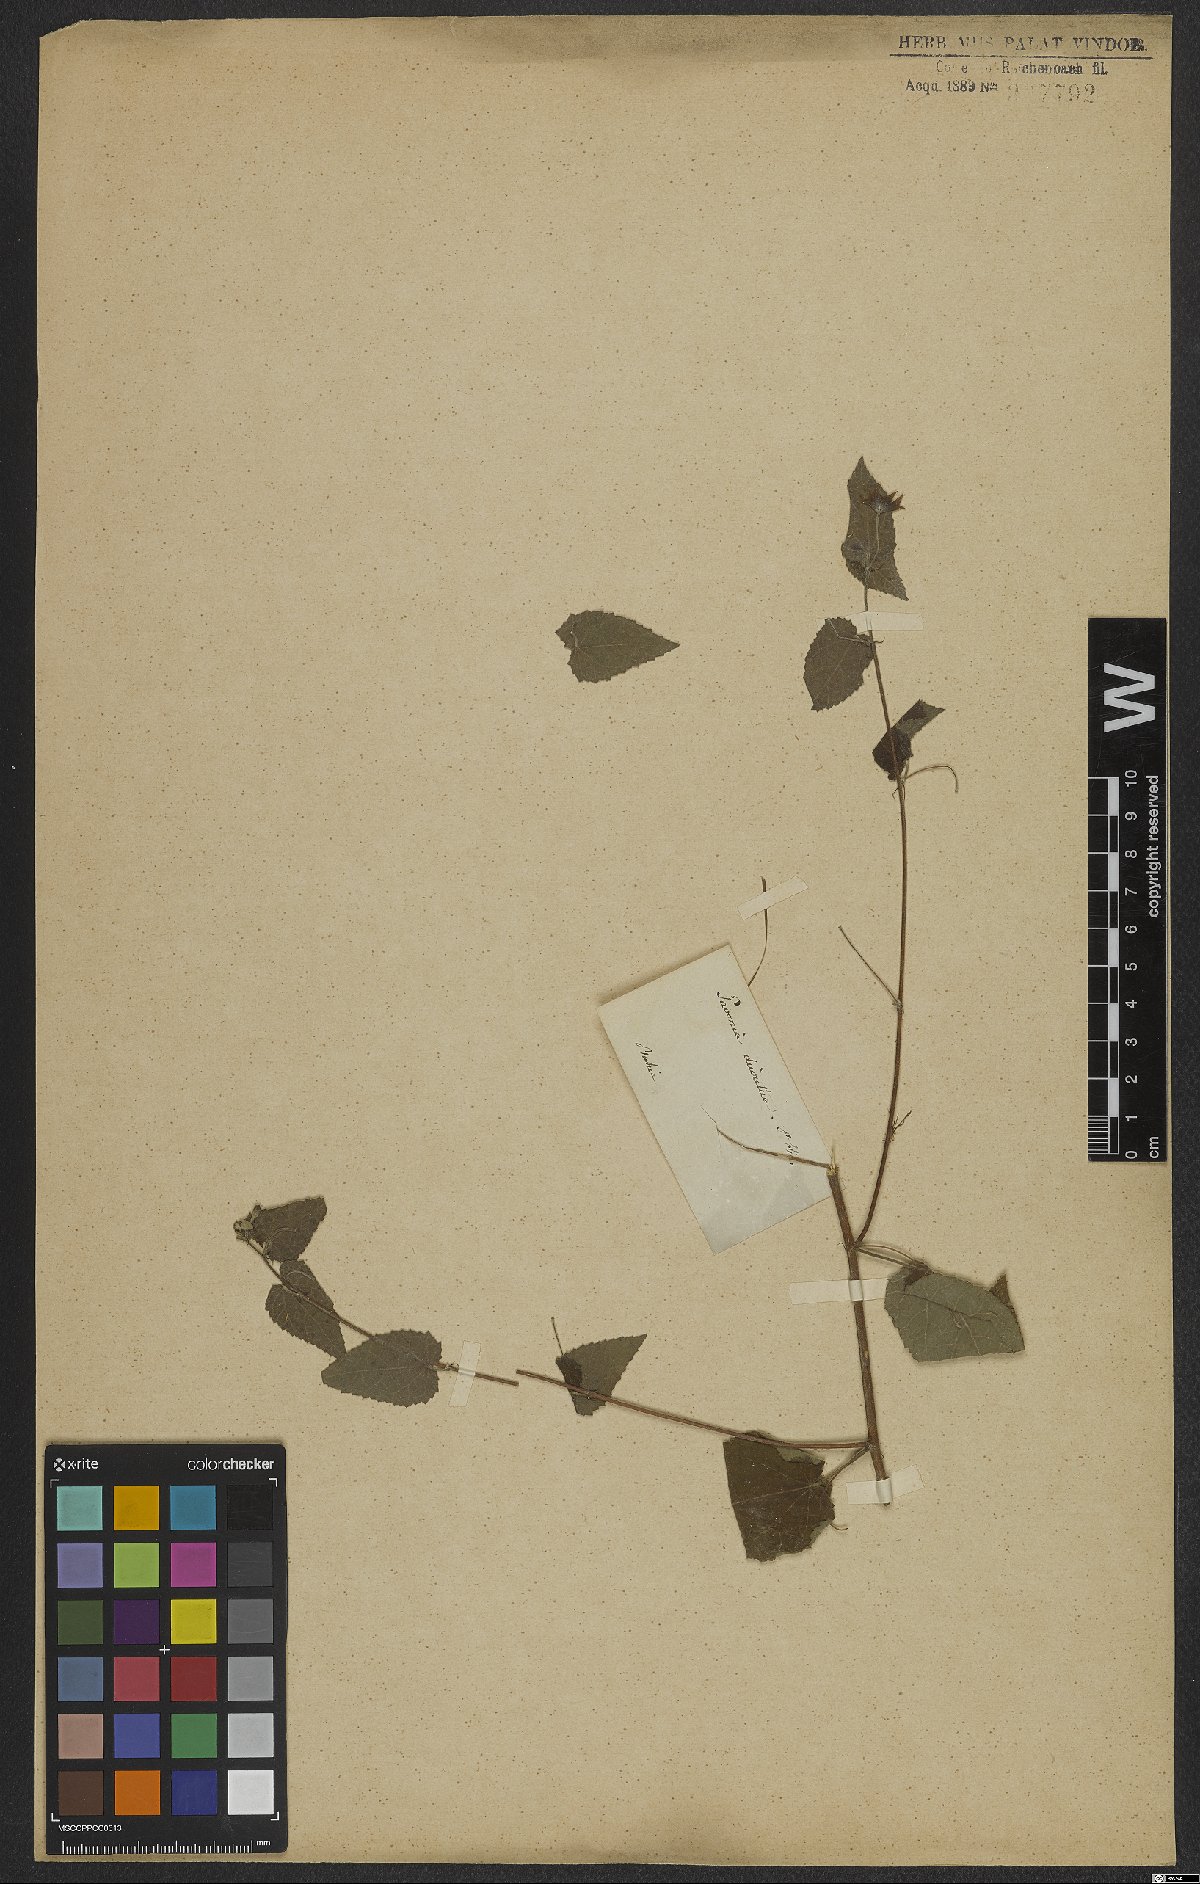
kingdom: Plantae
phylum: Tracheophyta
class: Magnoliopsida
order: Malvales
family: Malvaceae
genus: Pavonia
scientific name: Pavonia sidifolia
